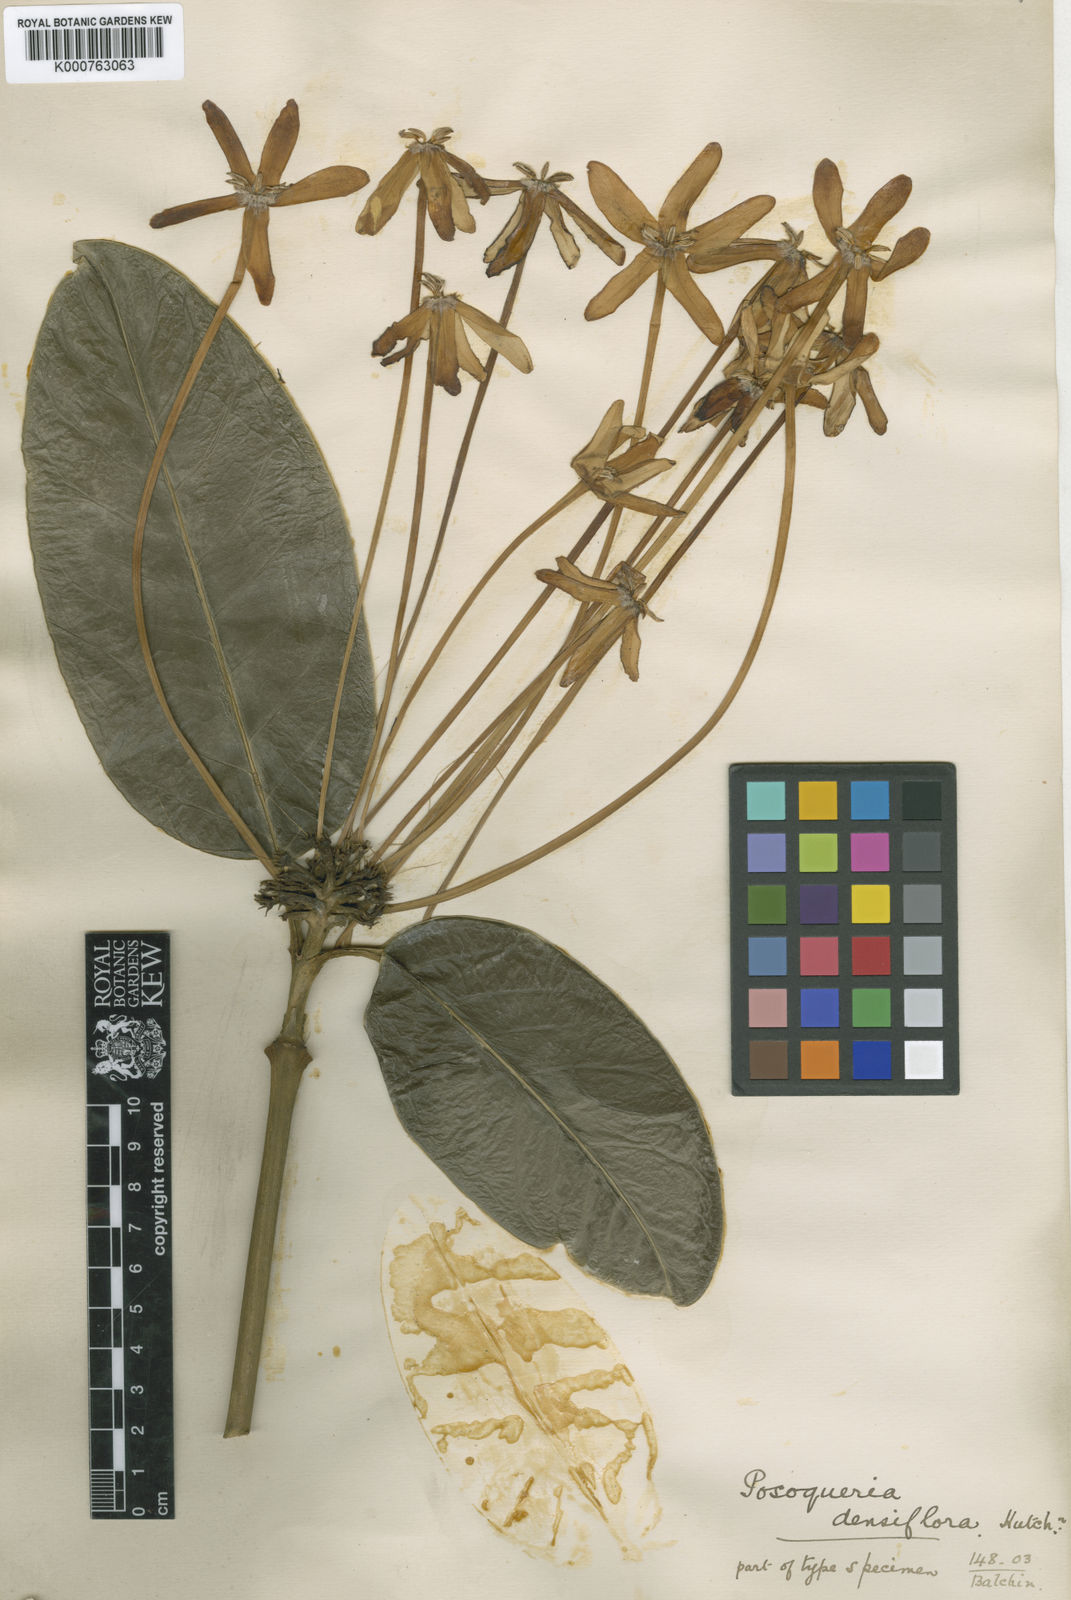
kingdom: Plantae
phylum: Tracheophyta
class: Magnoliopsida
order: Gentianales
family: Rubiaceae
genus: Posoqueria
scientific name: Posoqueria latifolia
